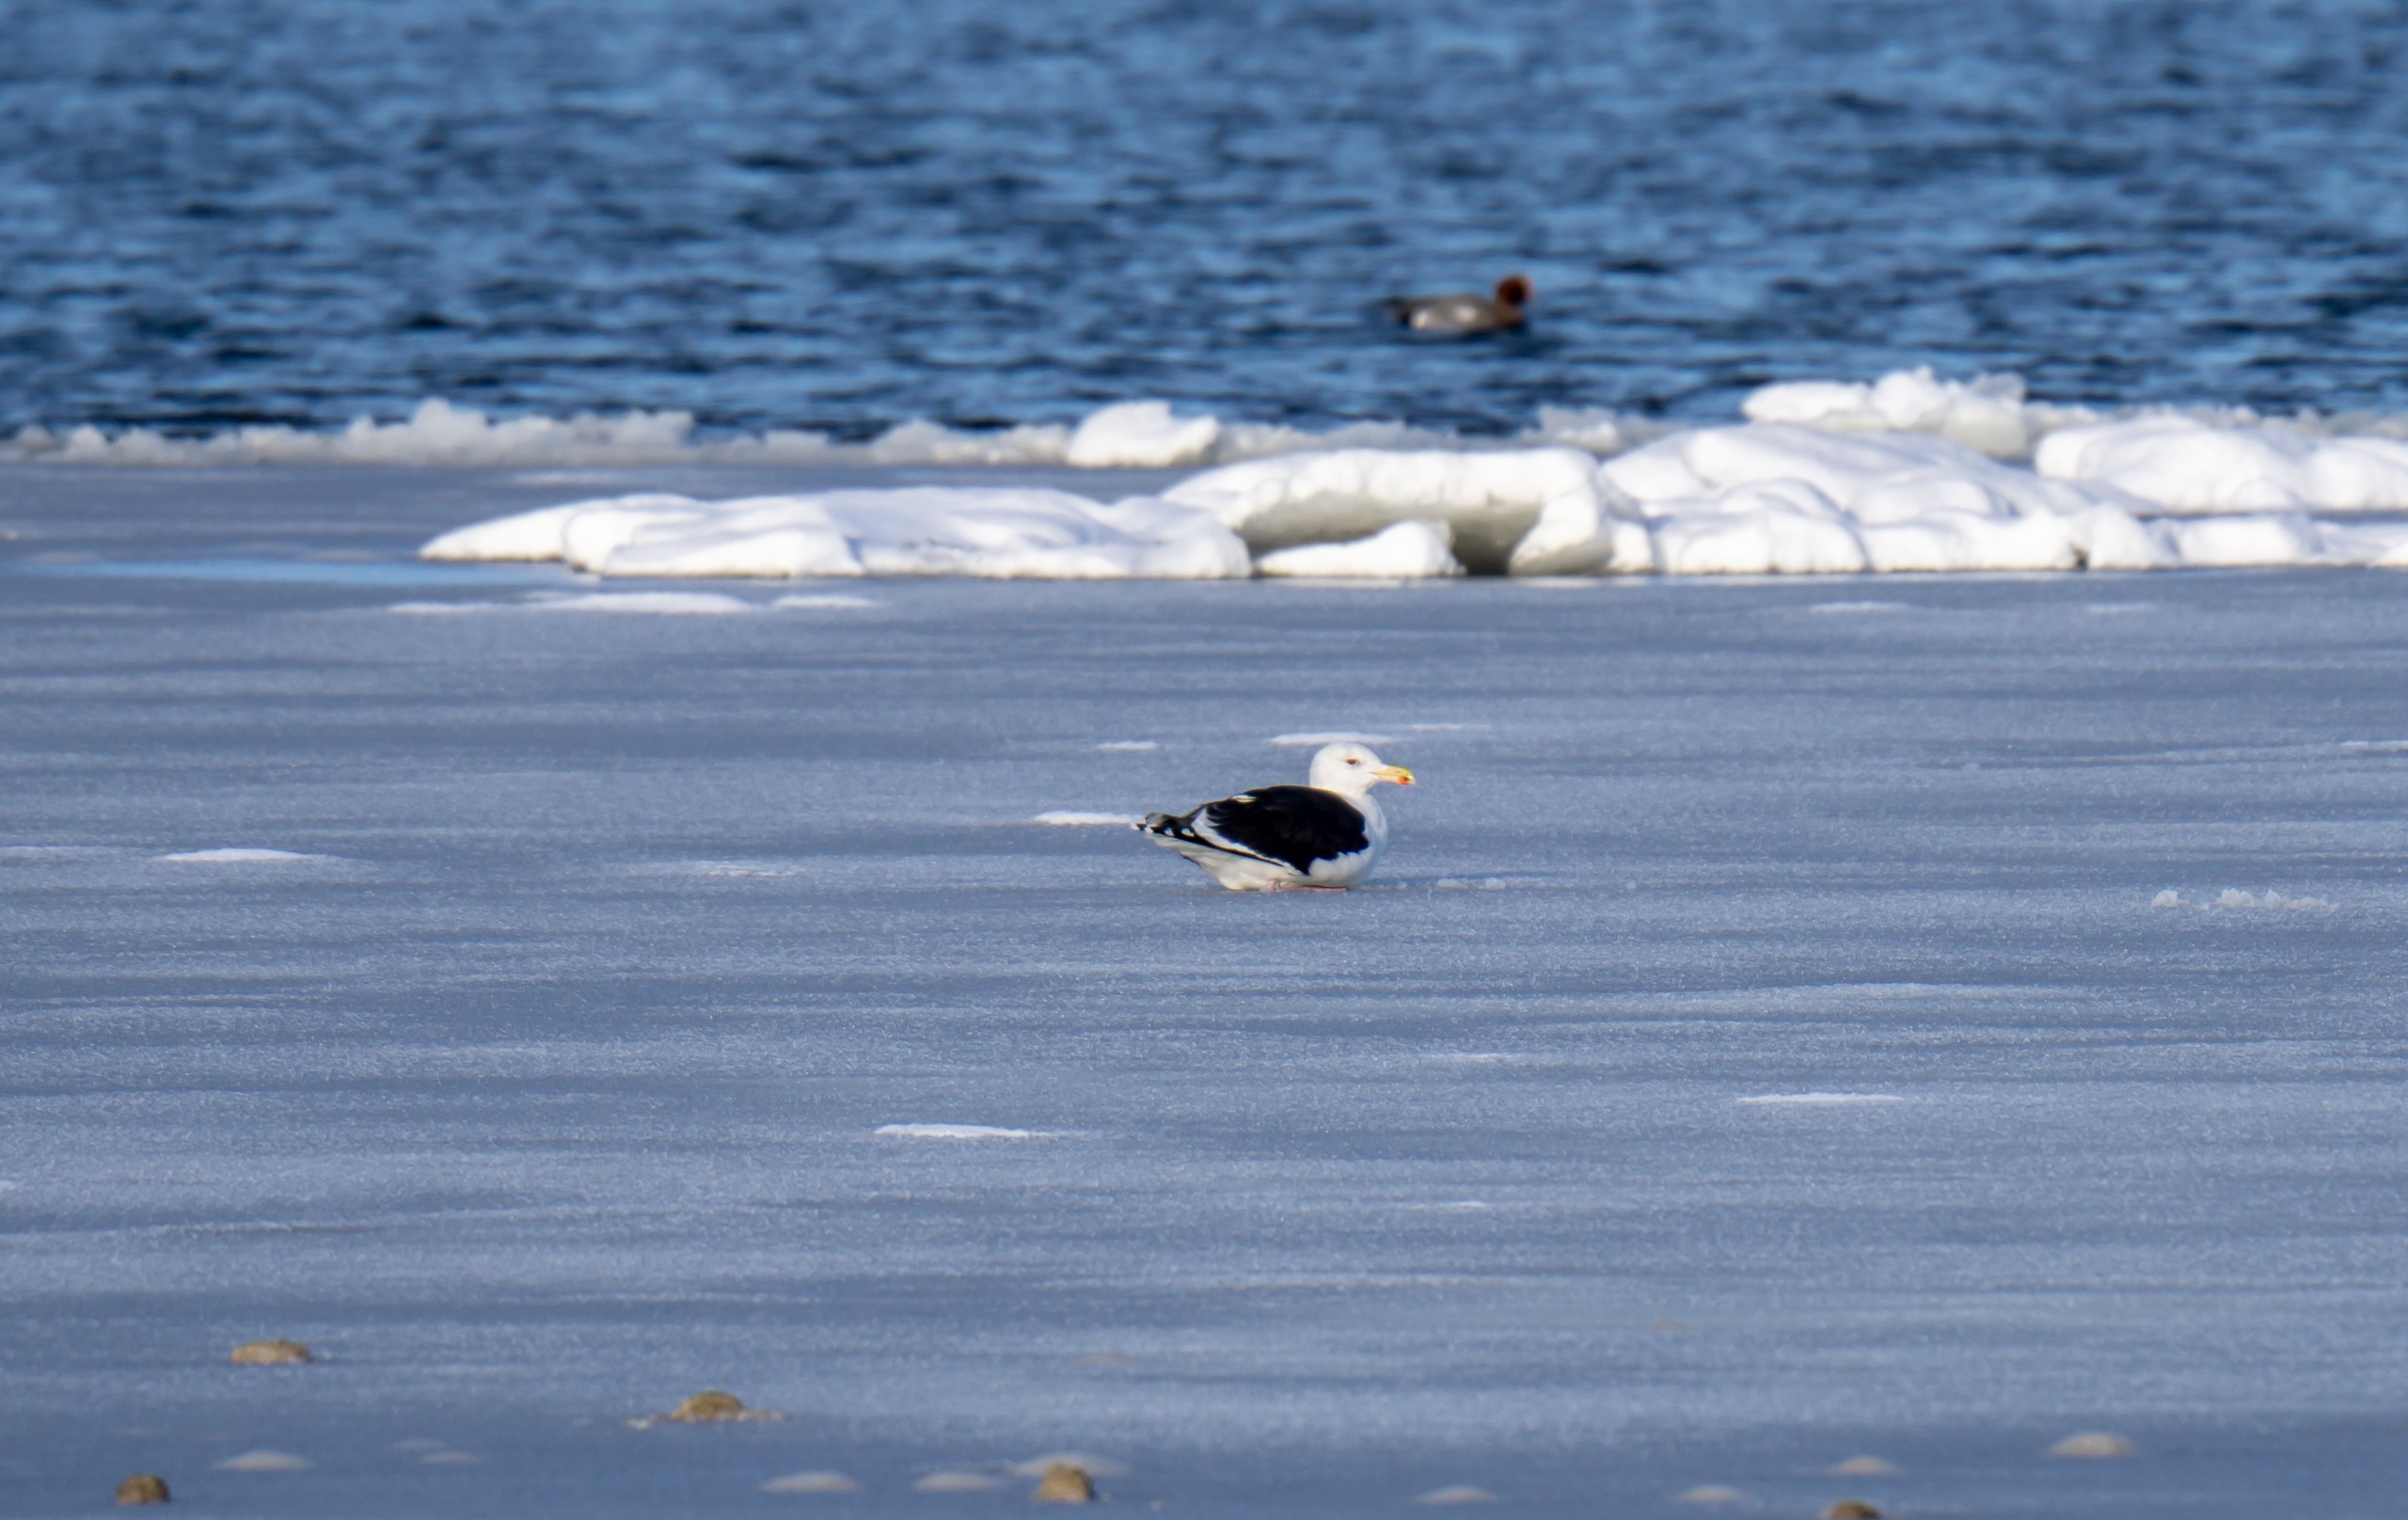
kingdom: Animalia
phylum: Chordata
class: Aves
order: Charadriiformes
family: Laridae
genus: Larus
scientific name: Larus marinus
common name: Svartbag
